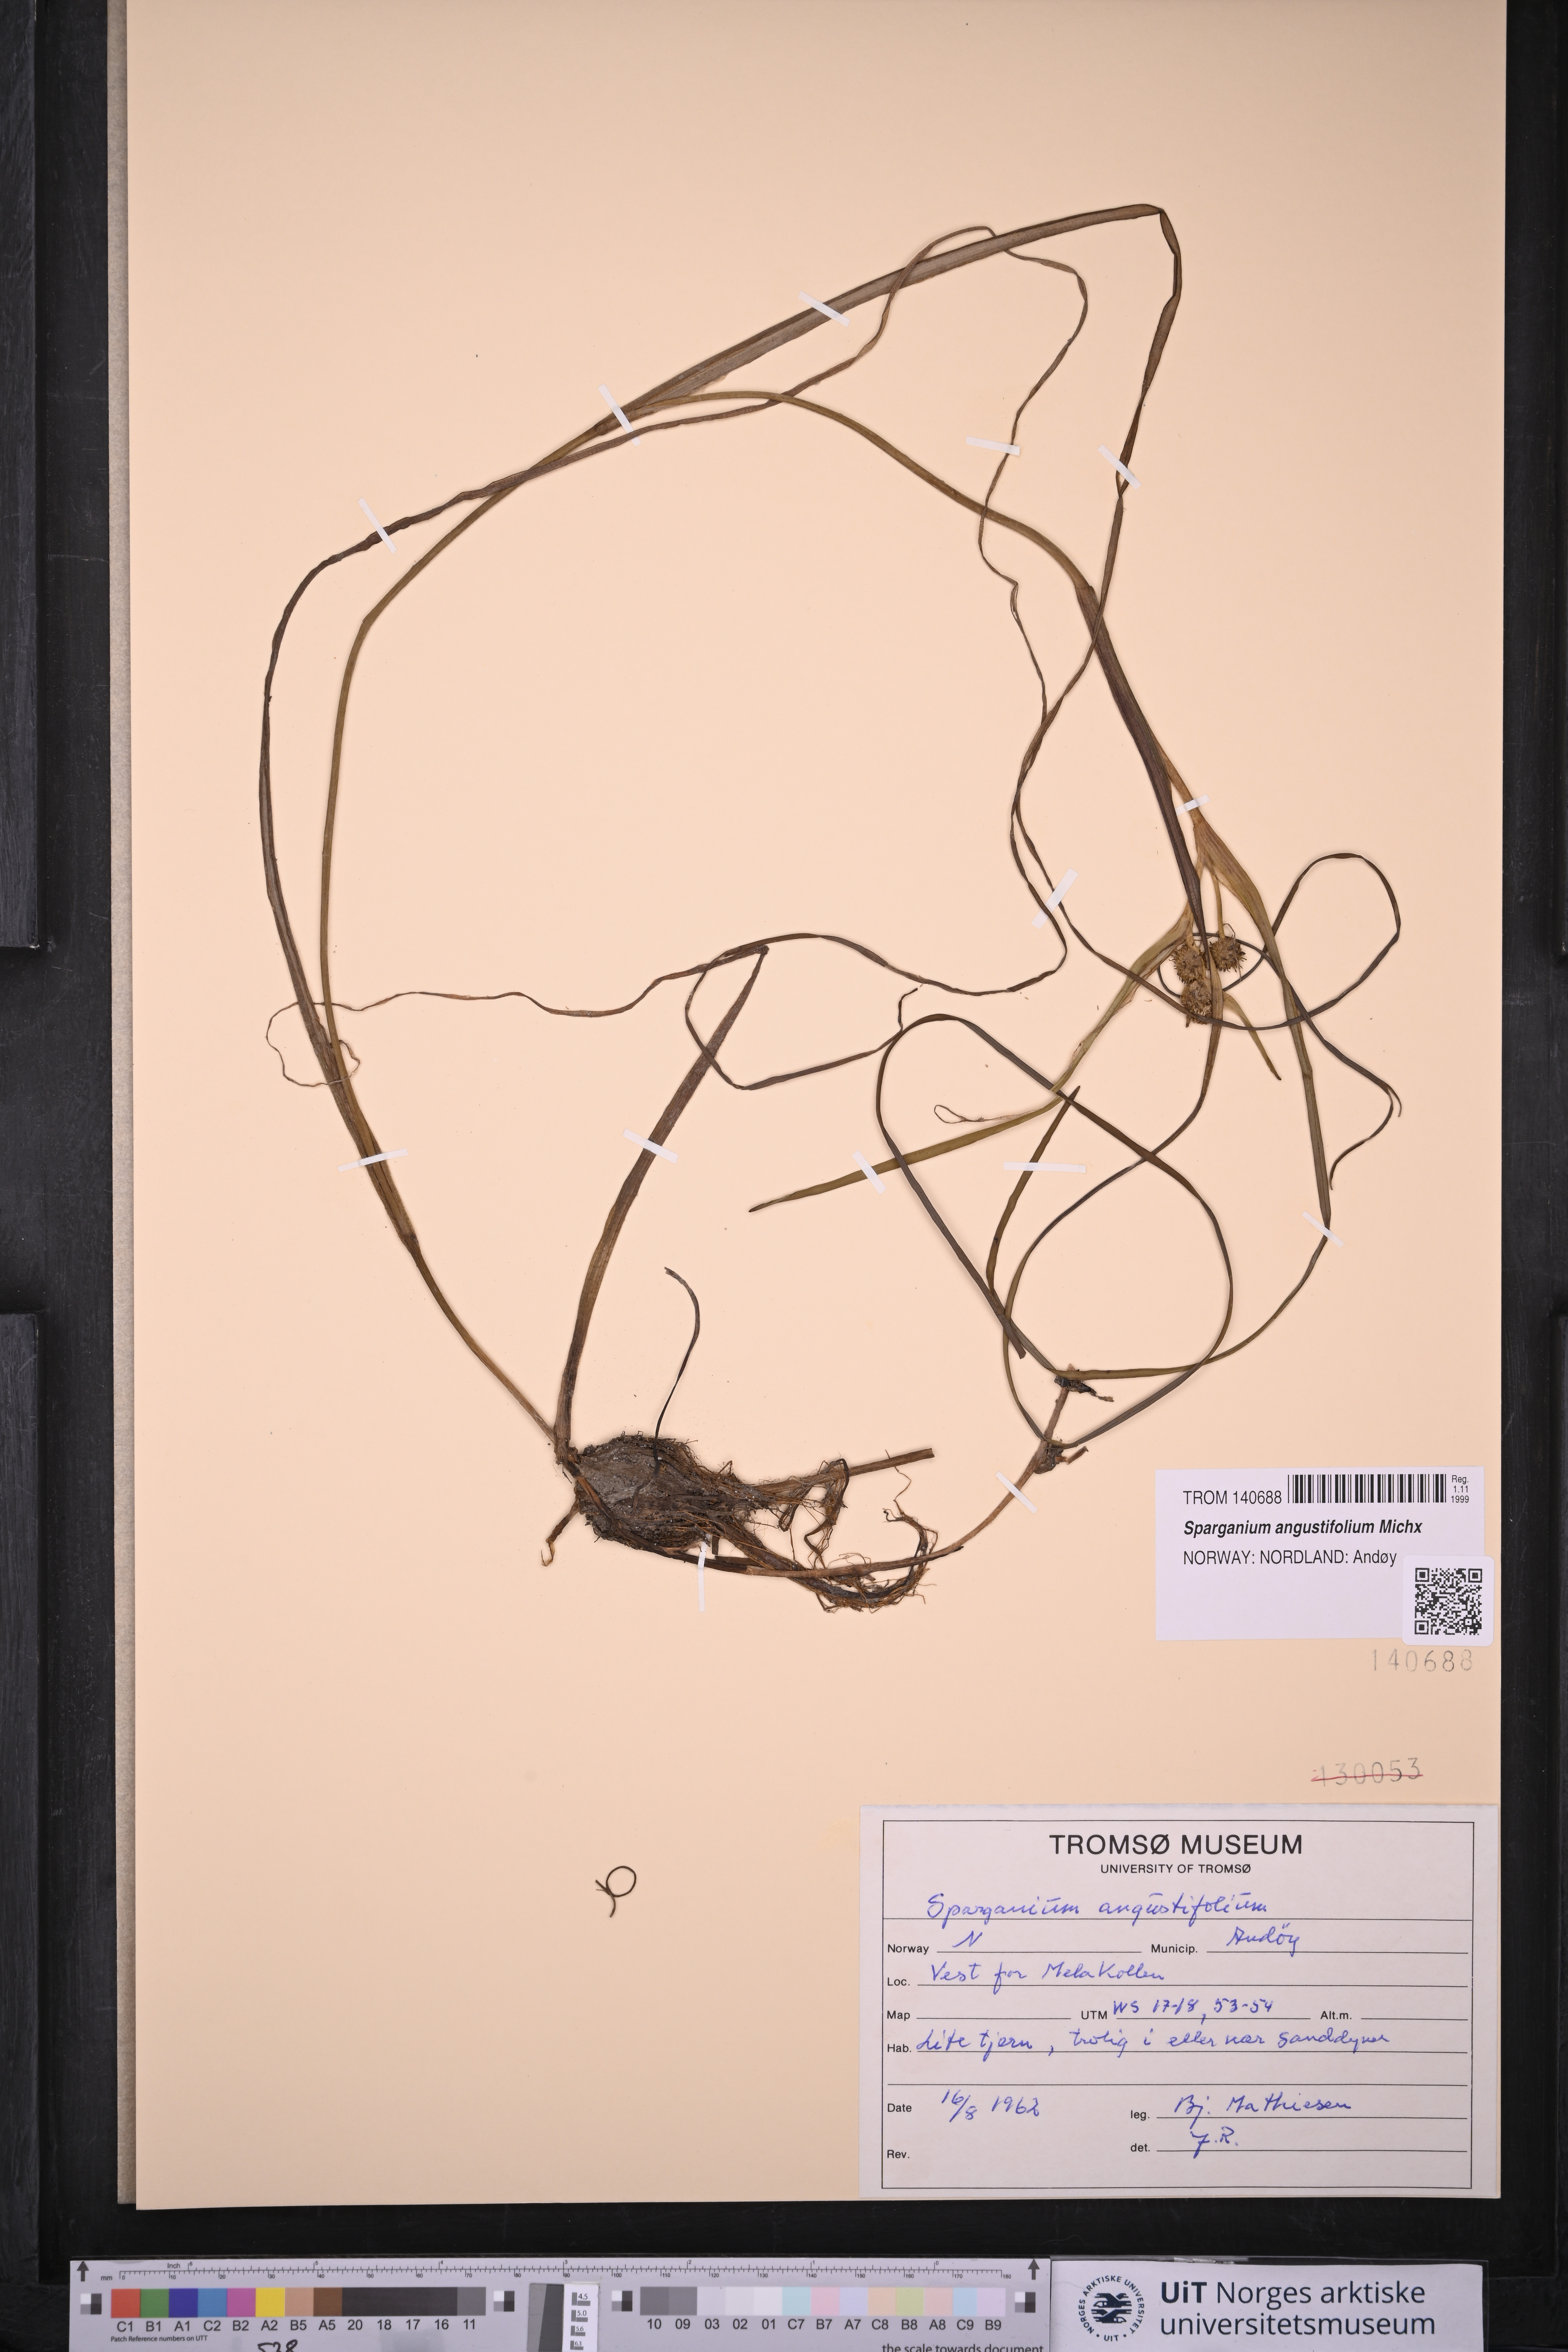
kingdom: Plantae
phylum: Tracheophyta
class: Liliopsida
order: Poales
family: Typhaceae
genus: Sparganium
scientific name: Sparganium angustifolium
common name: Floating bur-reed
